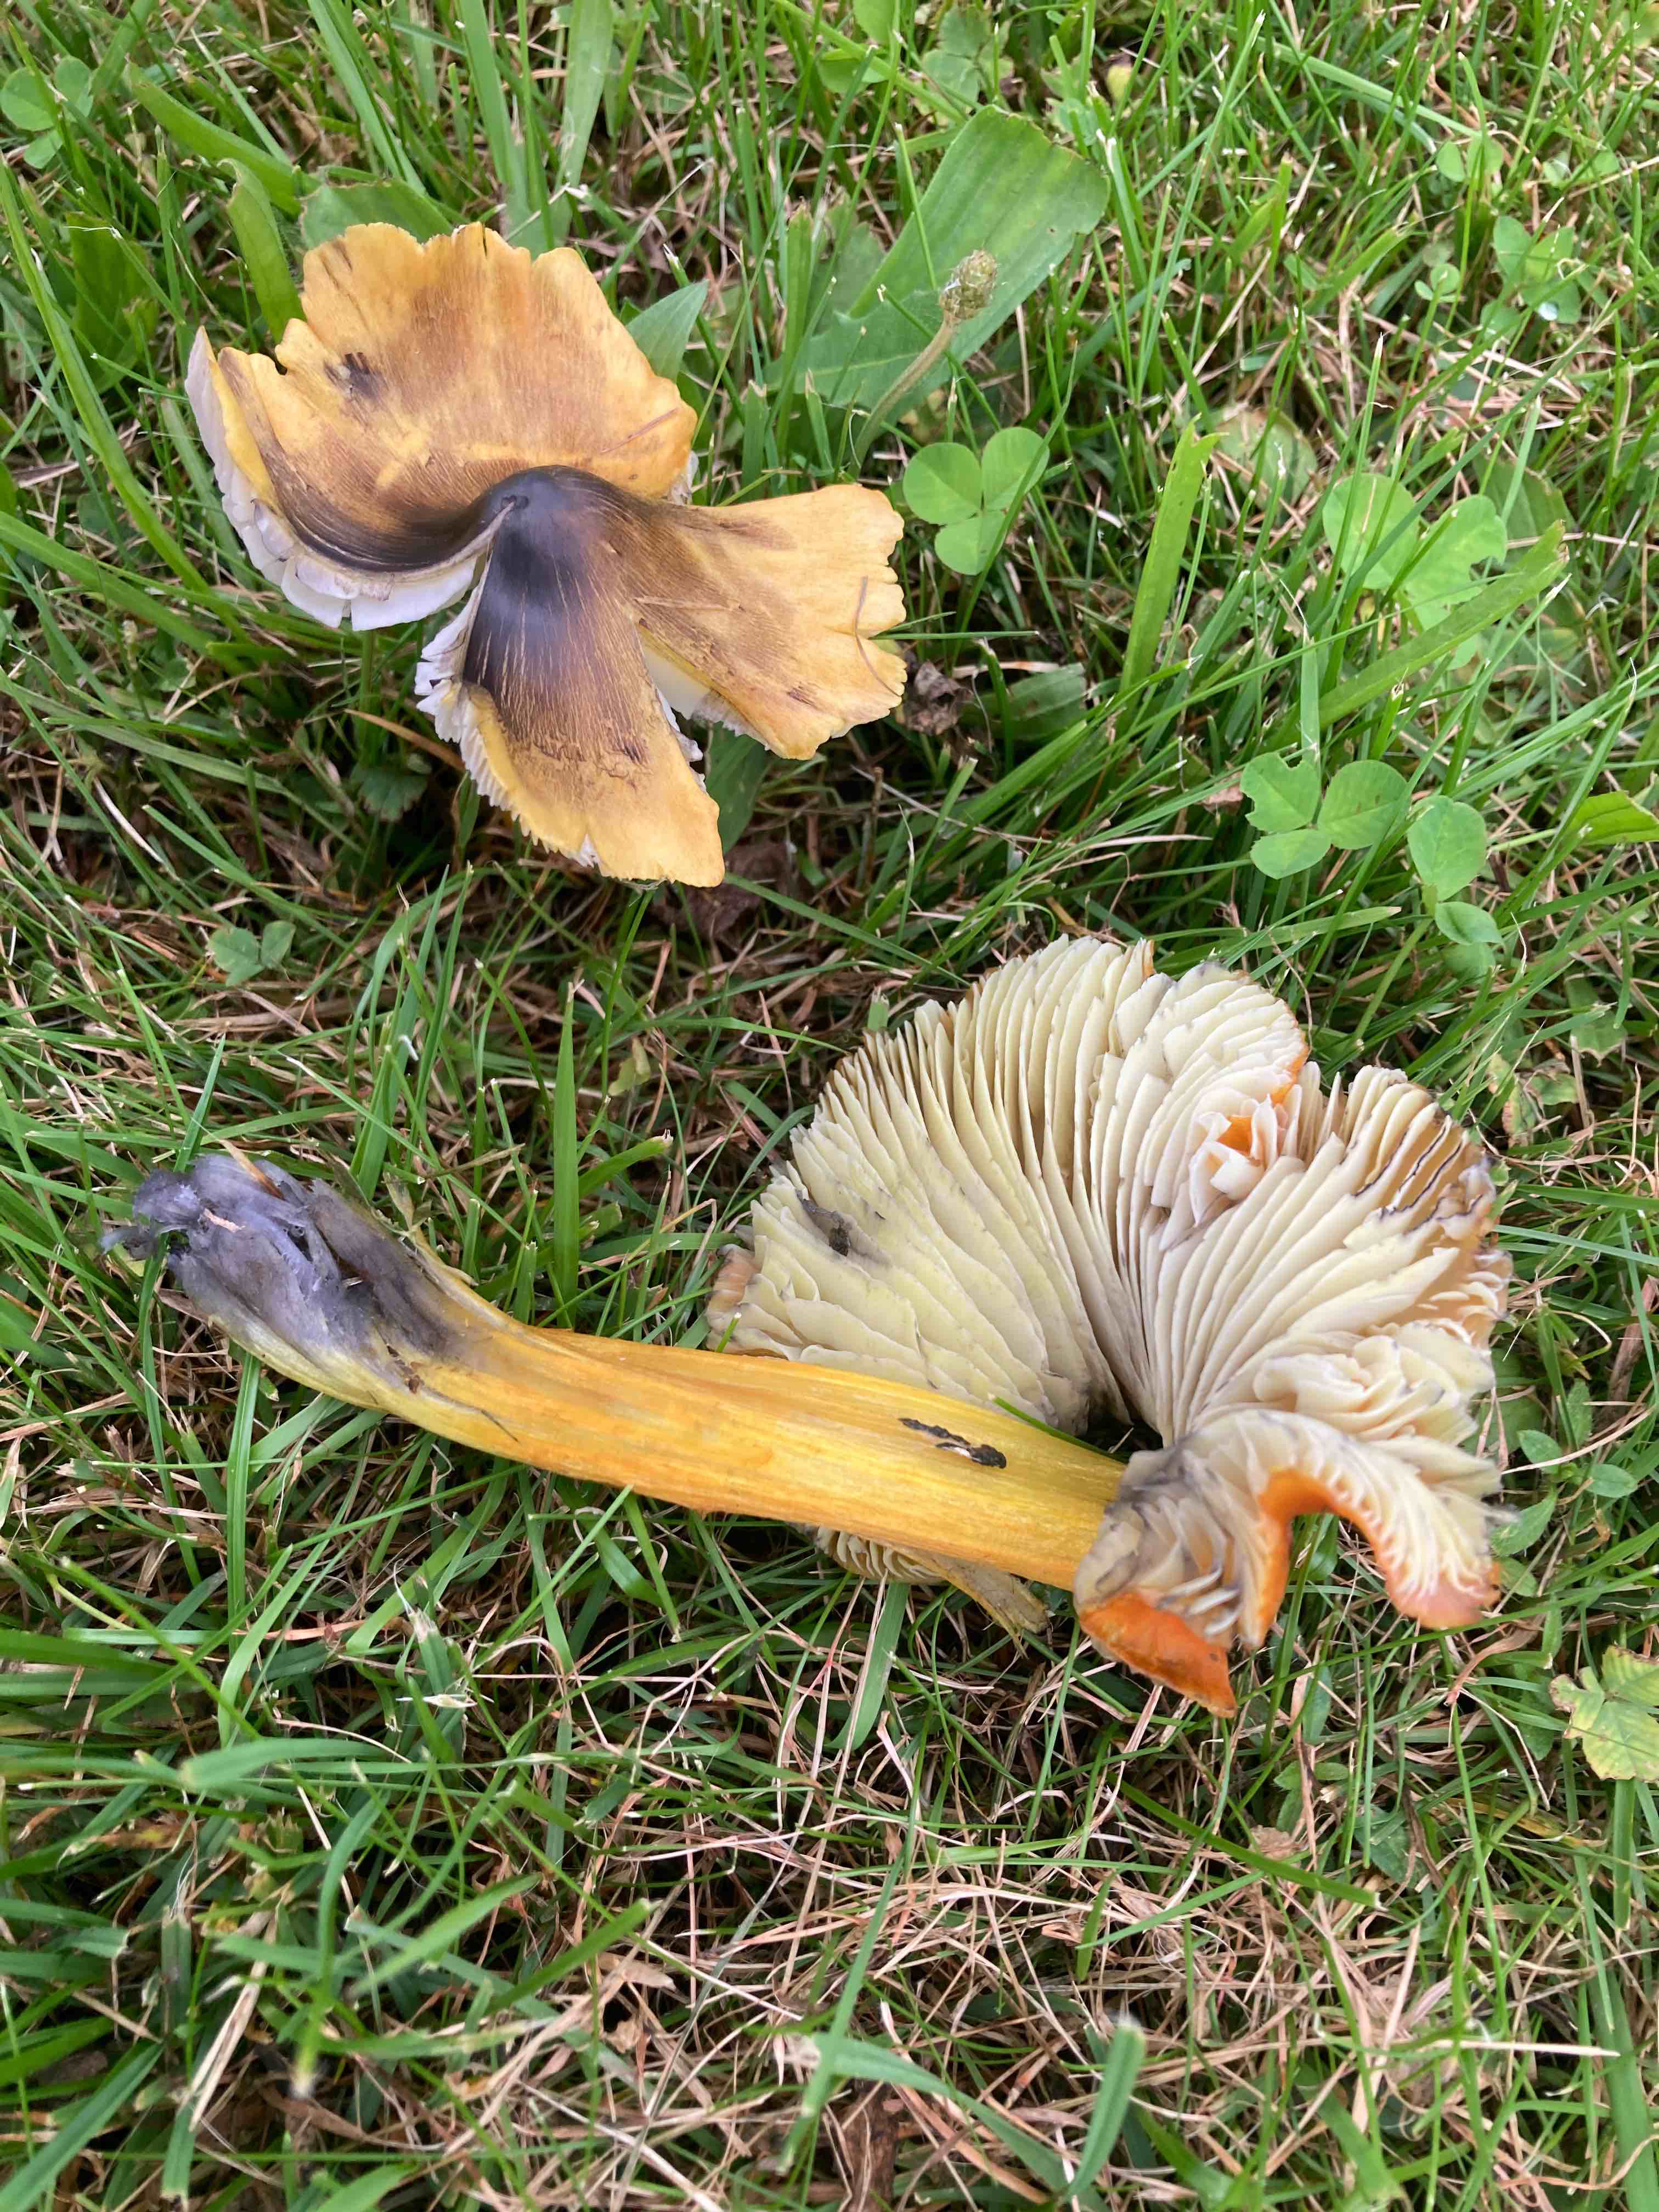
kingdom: Fungi
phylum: Basidiomycota
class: Agaricomycetes
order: Agaricales
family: Hygrophoraceae
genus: Hygrocybe
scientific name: Hygrocybe conica
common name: kegle-vokshat
